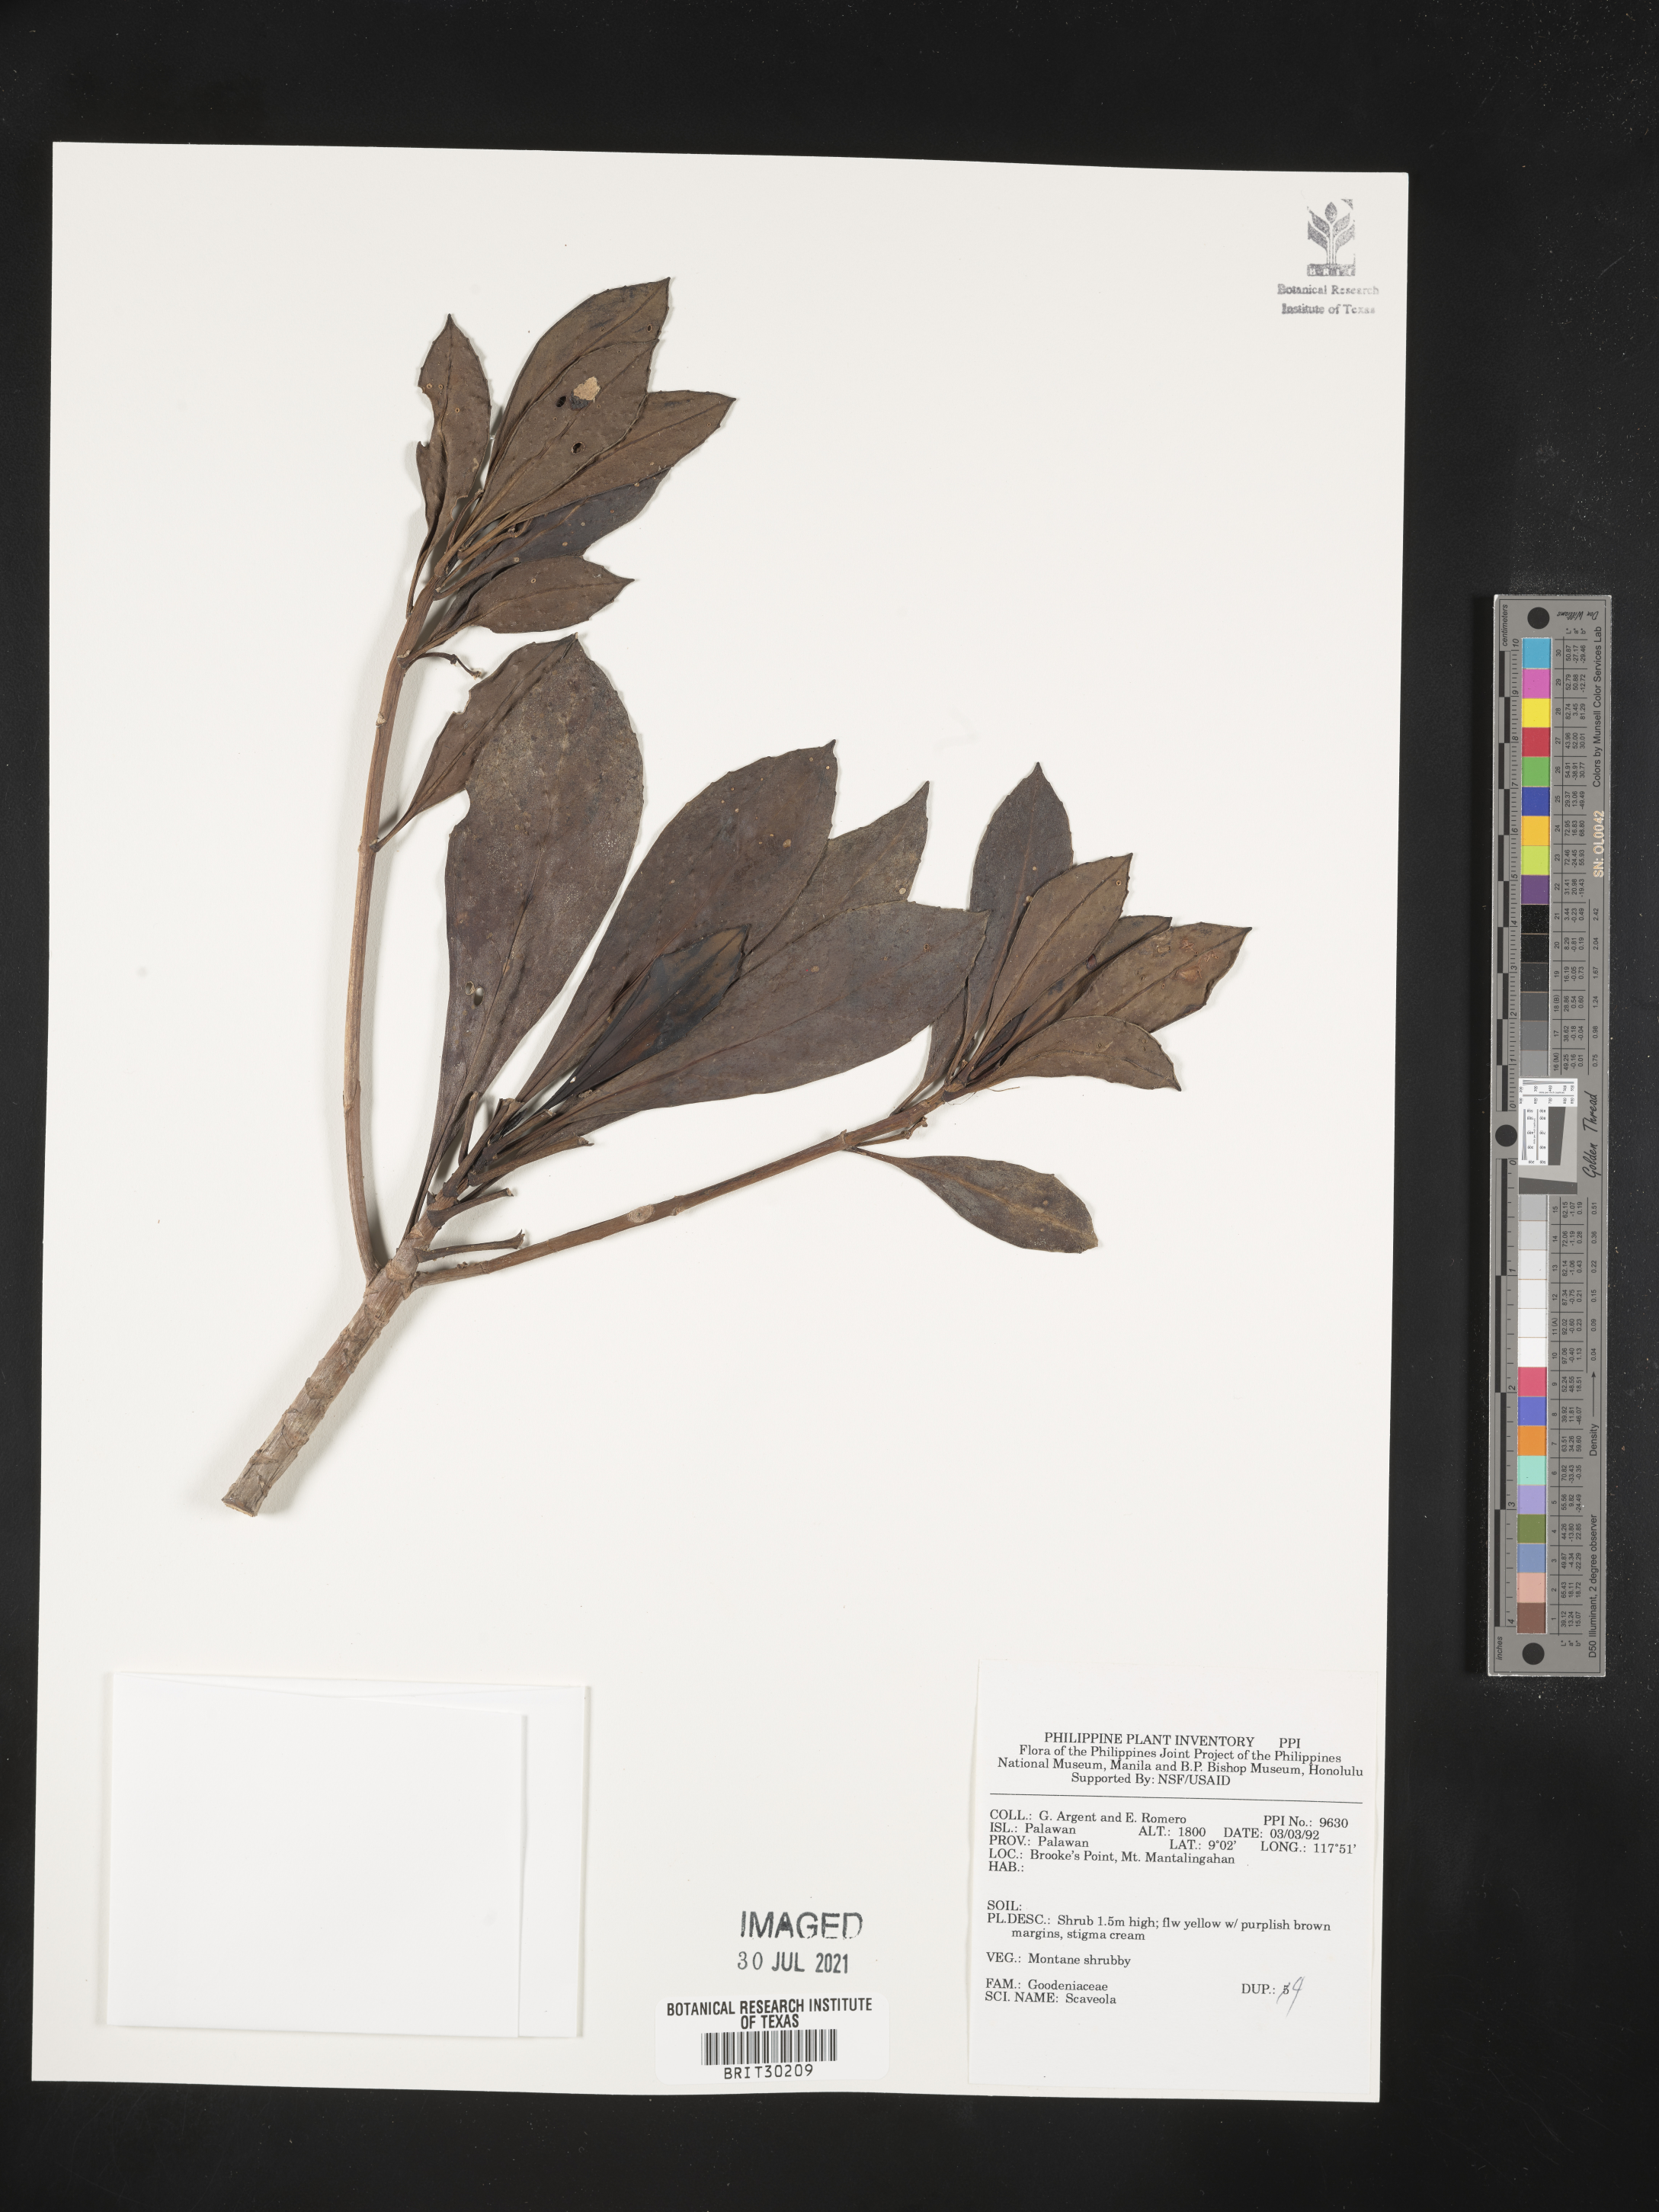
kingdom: Plantae
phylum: Tracheophyta
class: Magnoliopsida
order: Asterales
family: Goodeniaceae
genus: Scaevola
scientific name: Scaevola
